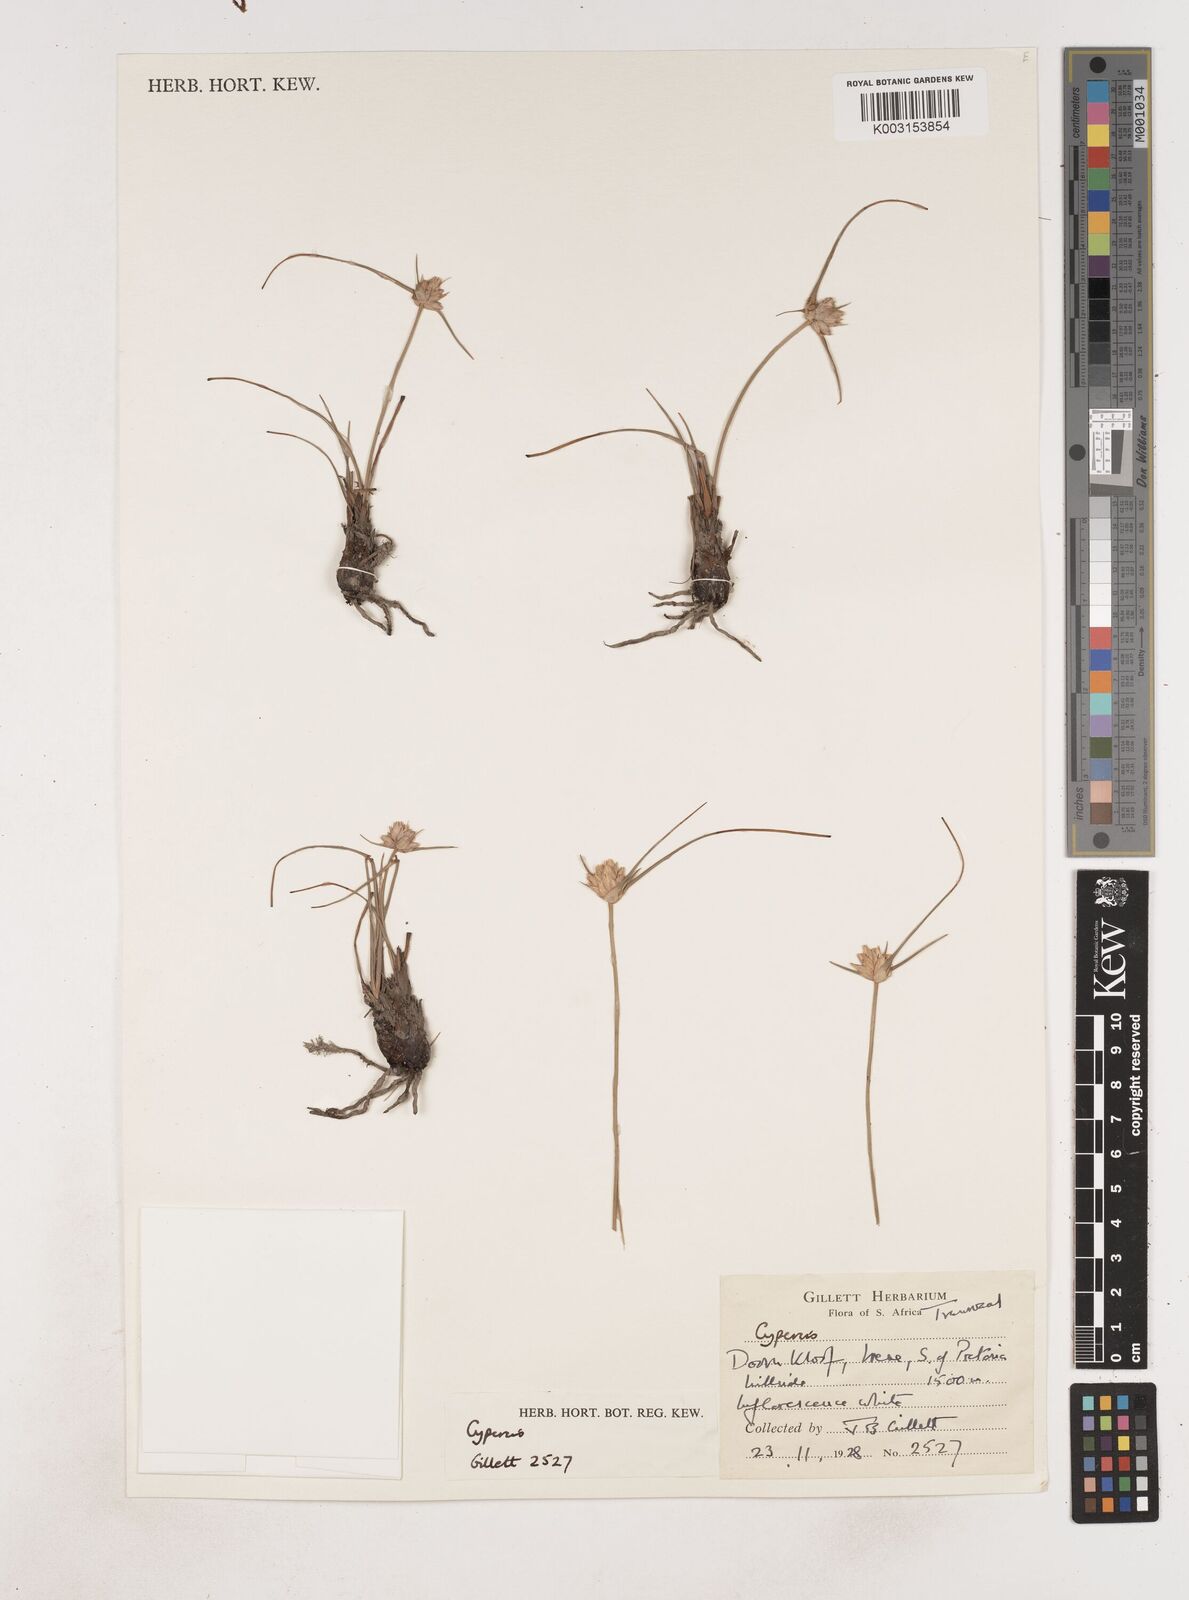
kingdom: Plantae
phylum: Tracheophyta
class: Liliopsida
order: Poales
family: Cyperaceae
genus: Cyperus
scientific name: Cyperus
